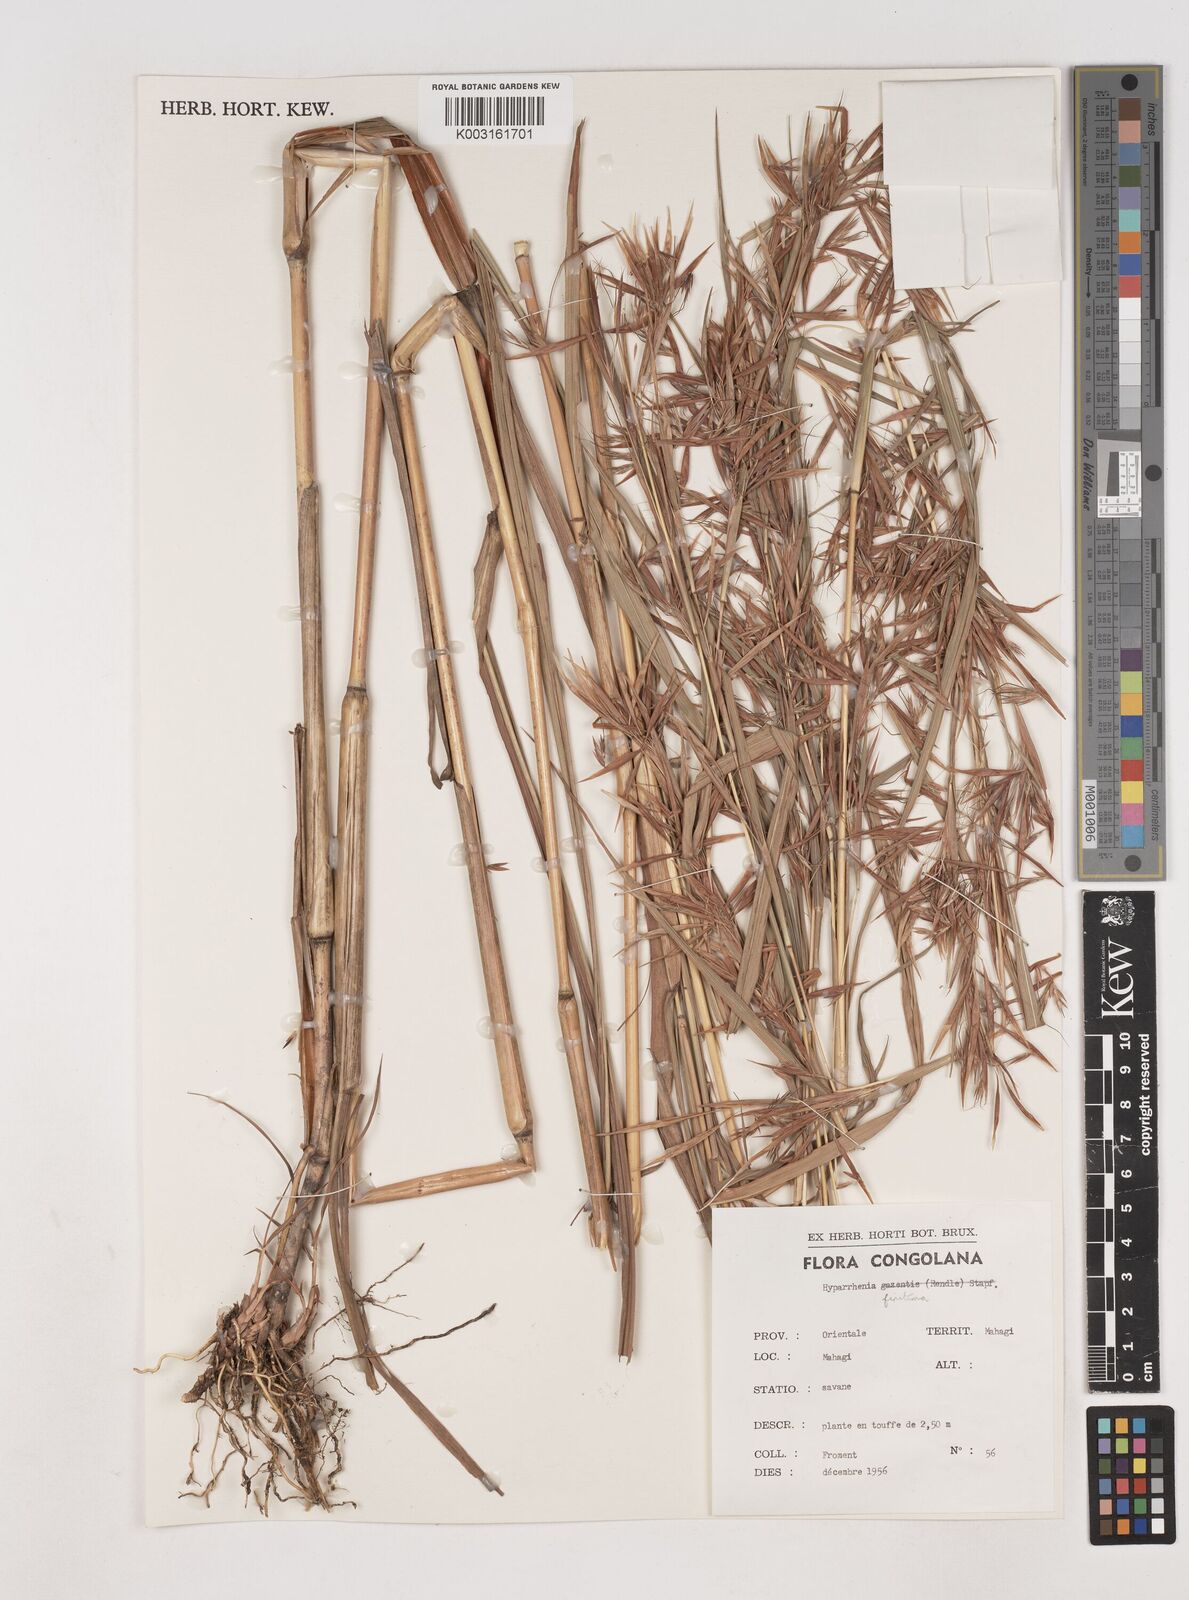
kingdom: Plantae
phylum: Tracheophyta
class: Liliopsida
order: Poales
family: Poaceae
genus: Hyparrhenia
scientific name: Hyparrhenia finitima
